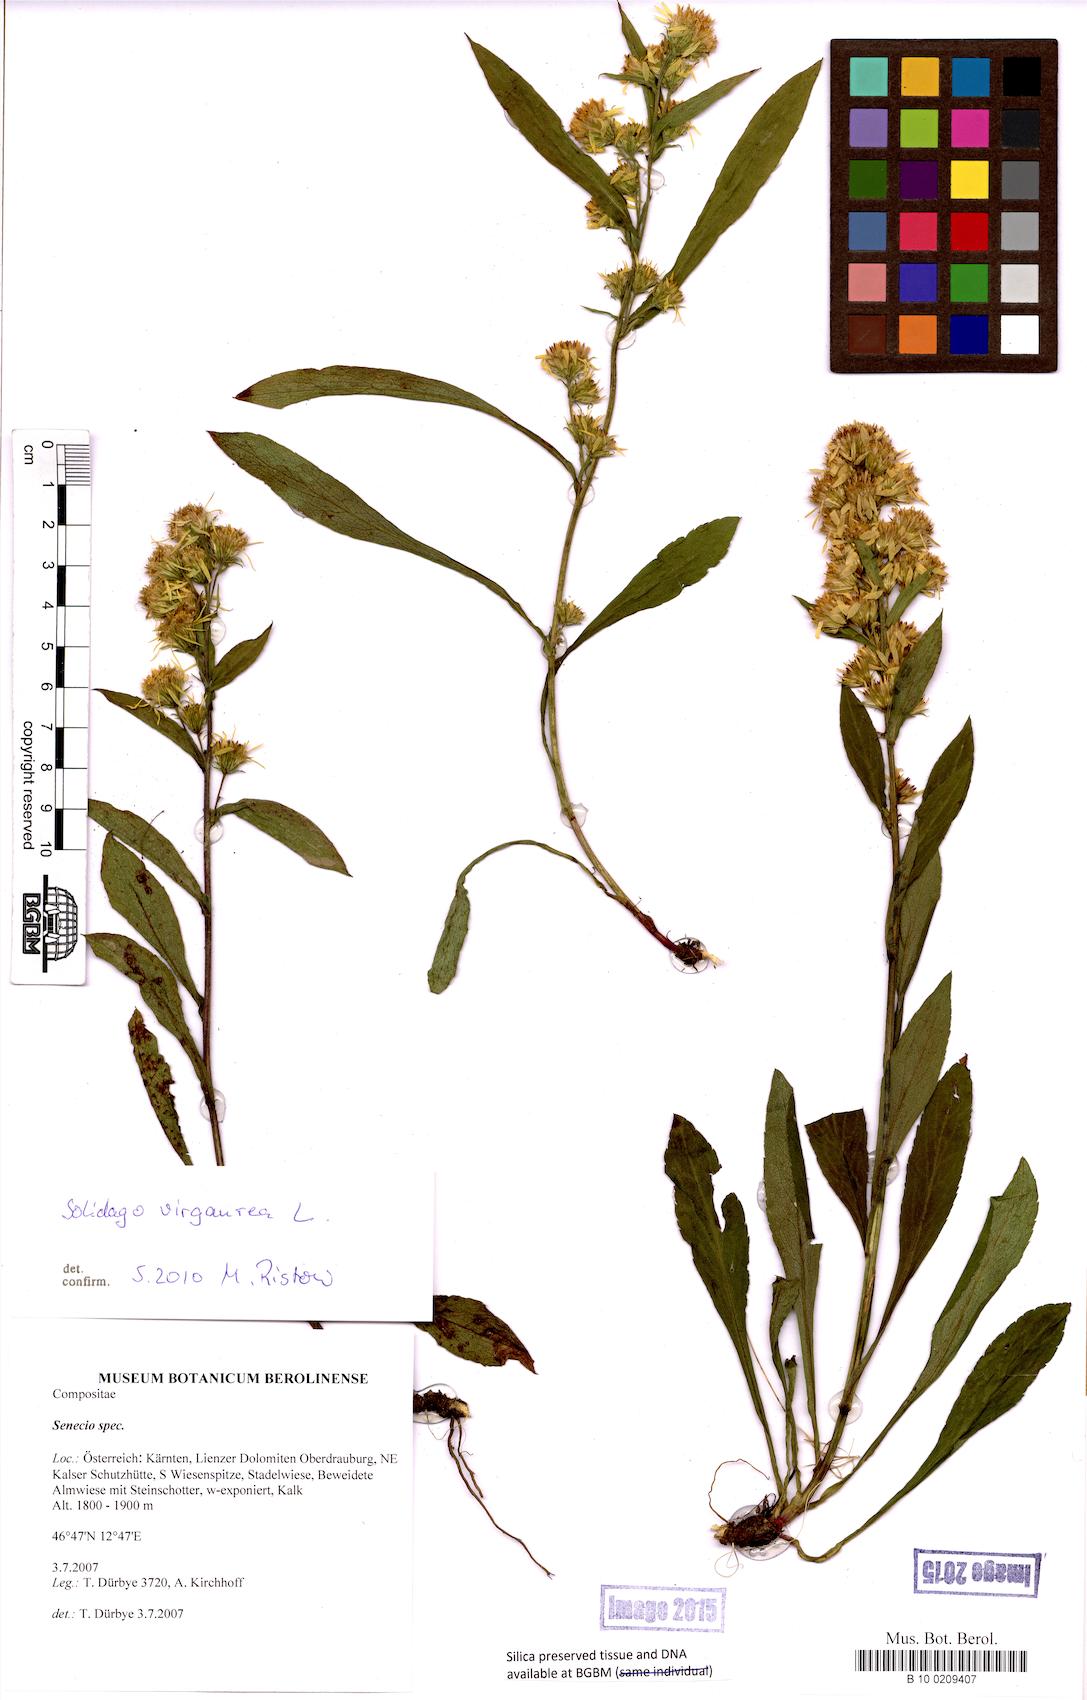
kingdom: Plantae
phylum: Tracheophyta
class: Magnoliopsida
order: Asterales
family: Asteraceae
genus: Senecio
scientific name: Senecio
